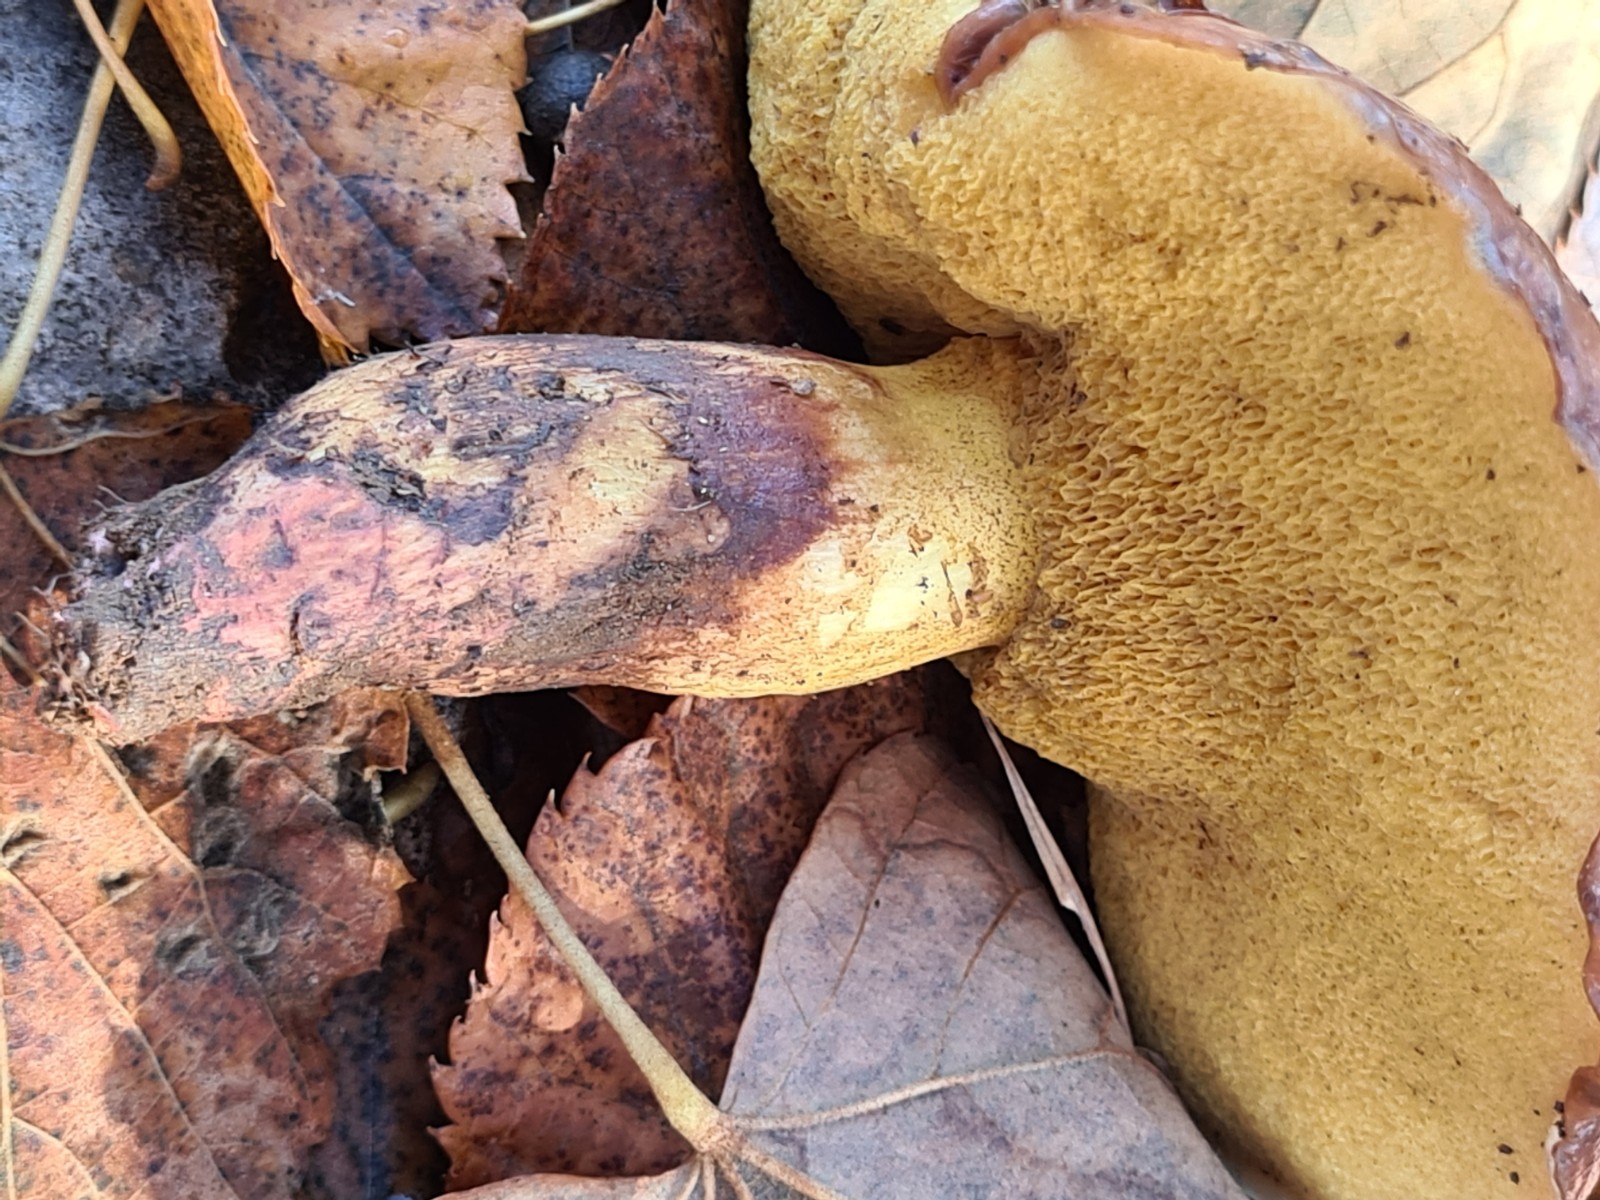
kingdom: Fungi
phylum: Basidiomycota
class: Agaricomycetes
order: Boletales
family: Suillaceae
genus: Suillus
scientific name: Suillus collinitus
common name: rosafodet slimrørhat
